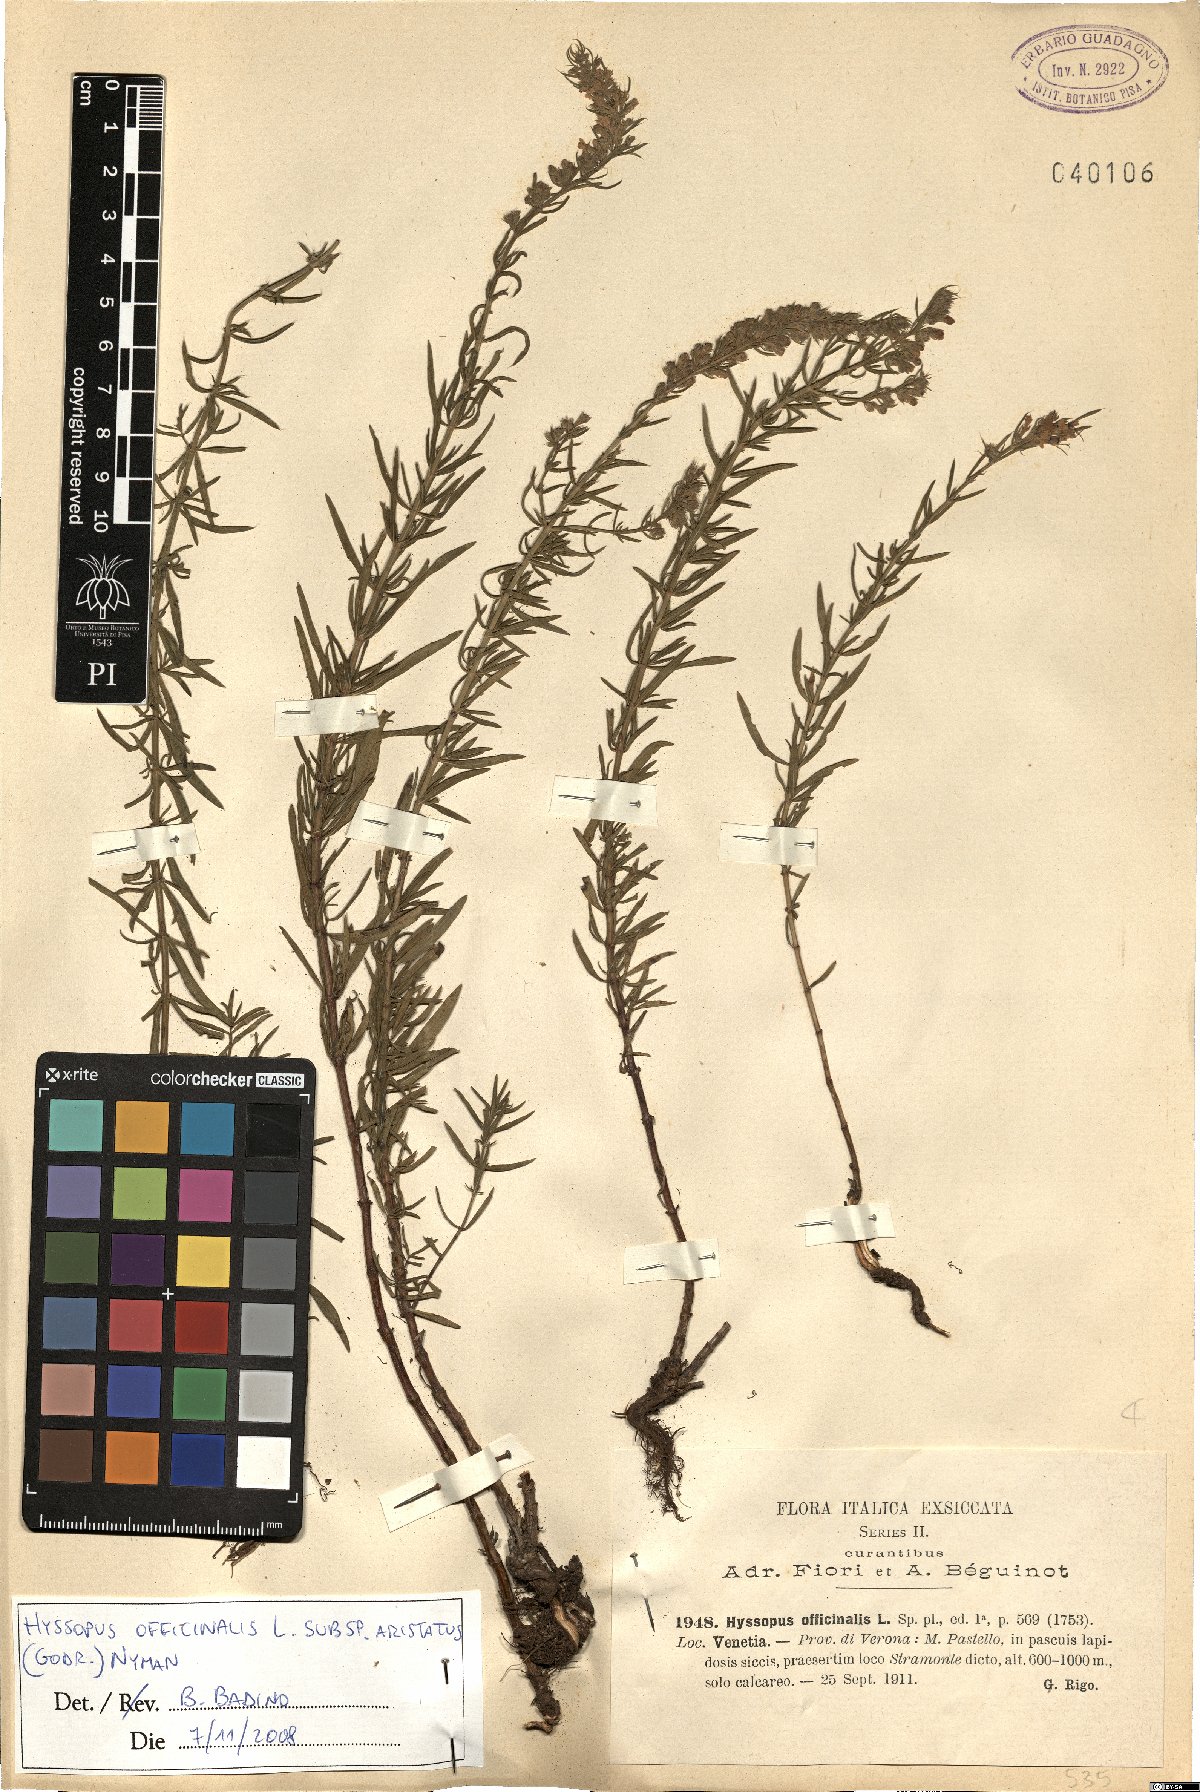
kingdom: Plantae
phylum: Tracheophyta
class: Magnoliopsida
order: Lamiales
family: Lamiaceae
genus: Hyssopus
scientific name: Hyssopus officinalis
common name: Hyssop
